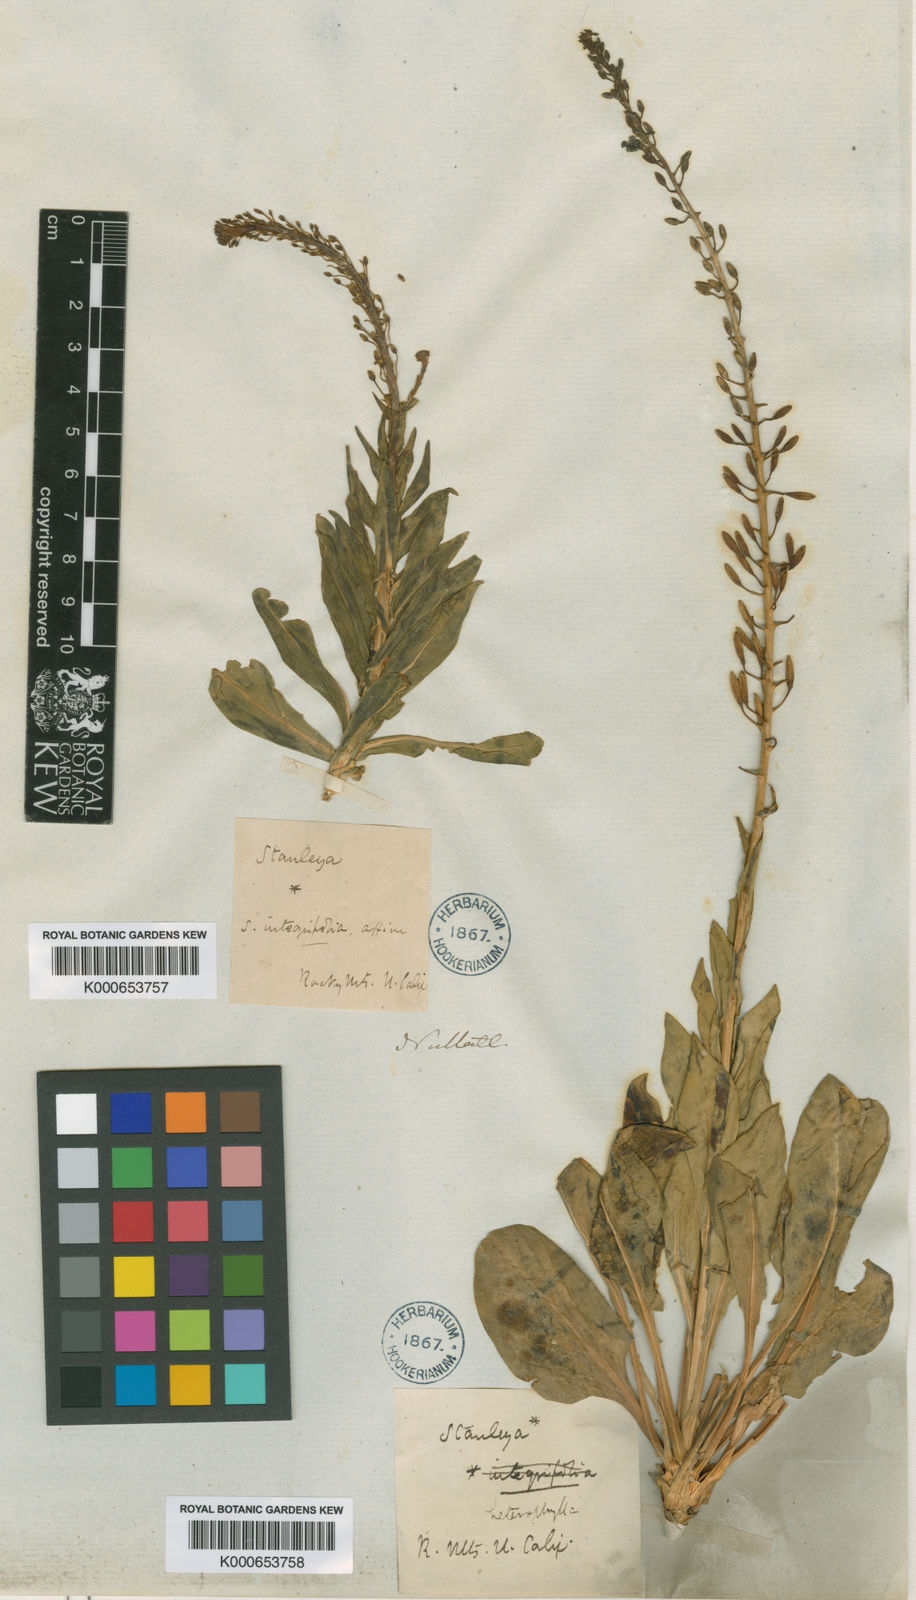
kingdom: Plantae
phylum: Tracheophyta
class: Magnoliopsida
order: Brassicales
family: Brassicaceae
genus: Stanleya
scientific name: Stanleya pinnata
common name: Prince's-plume
